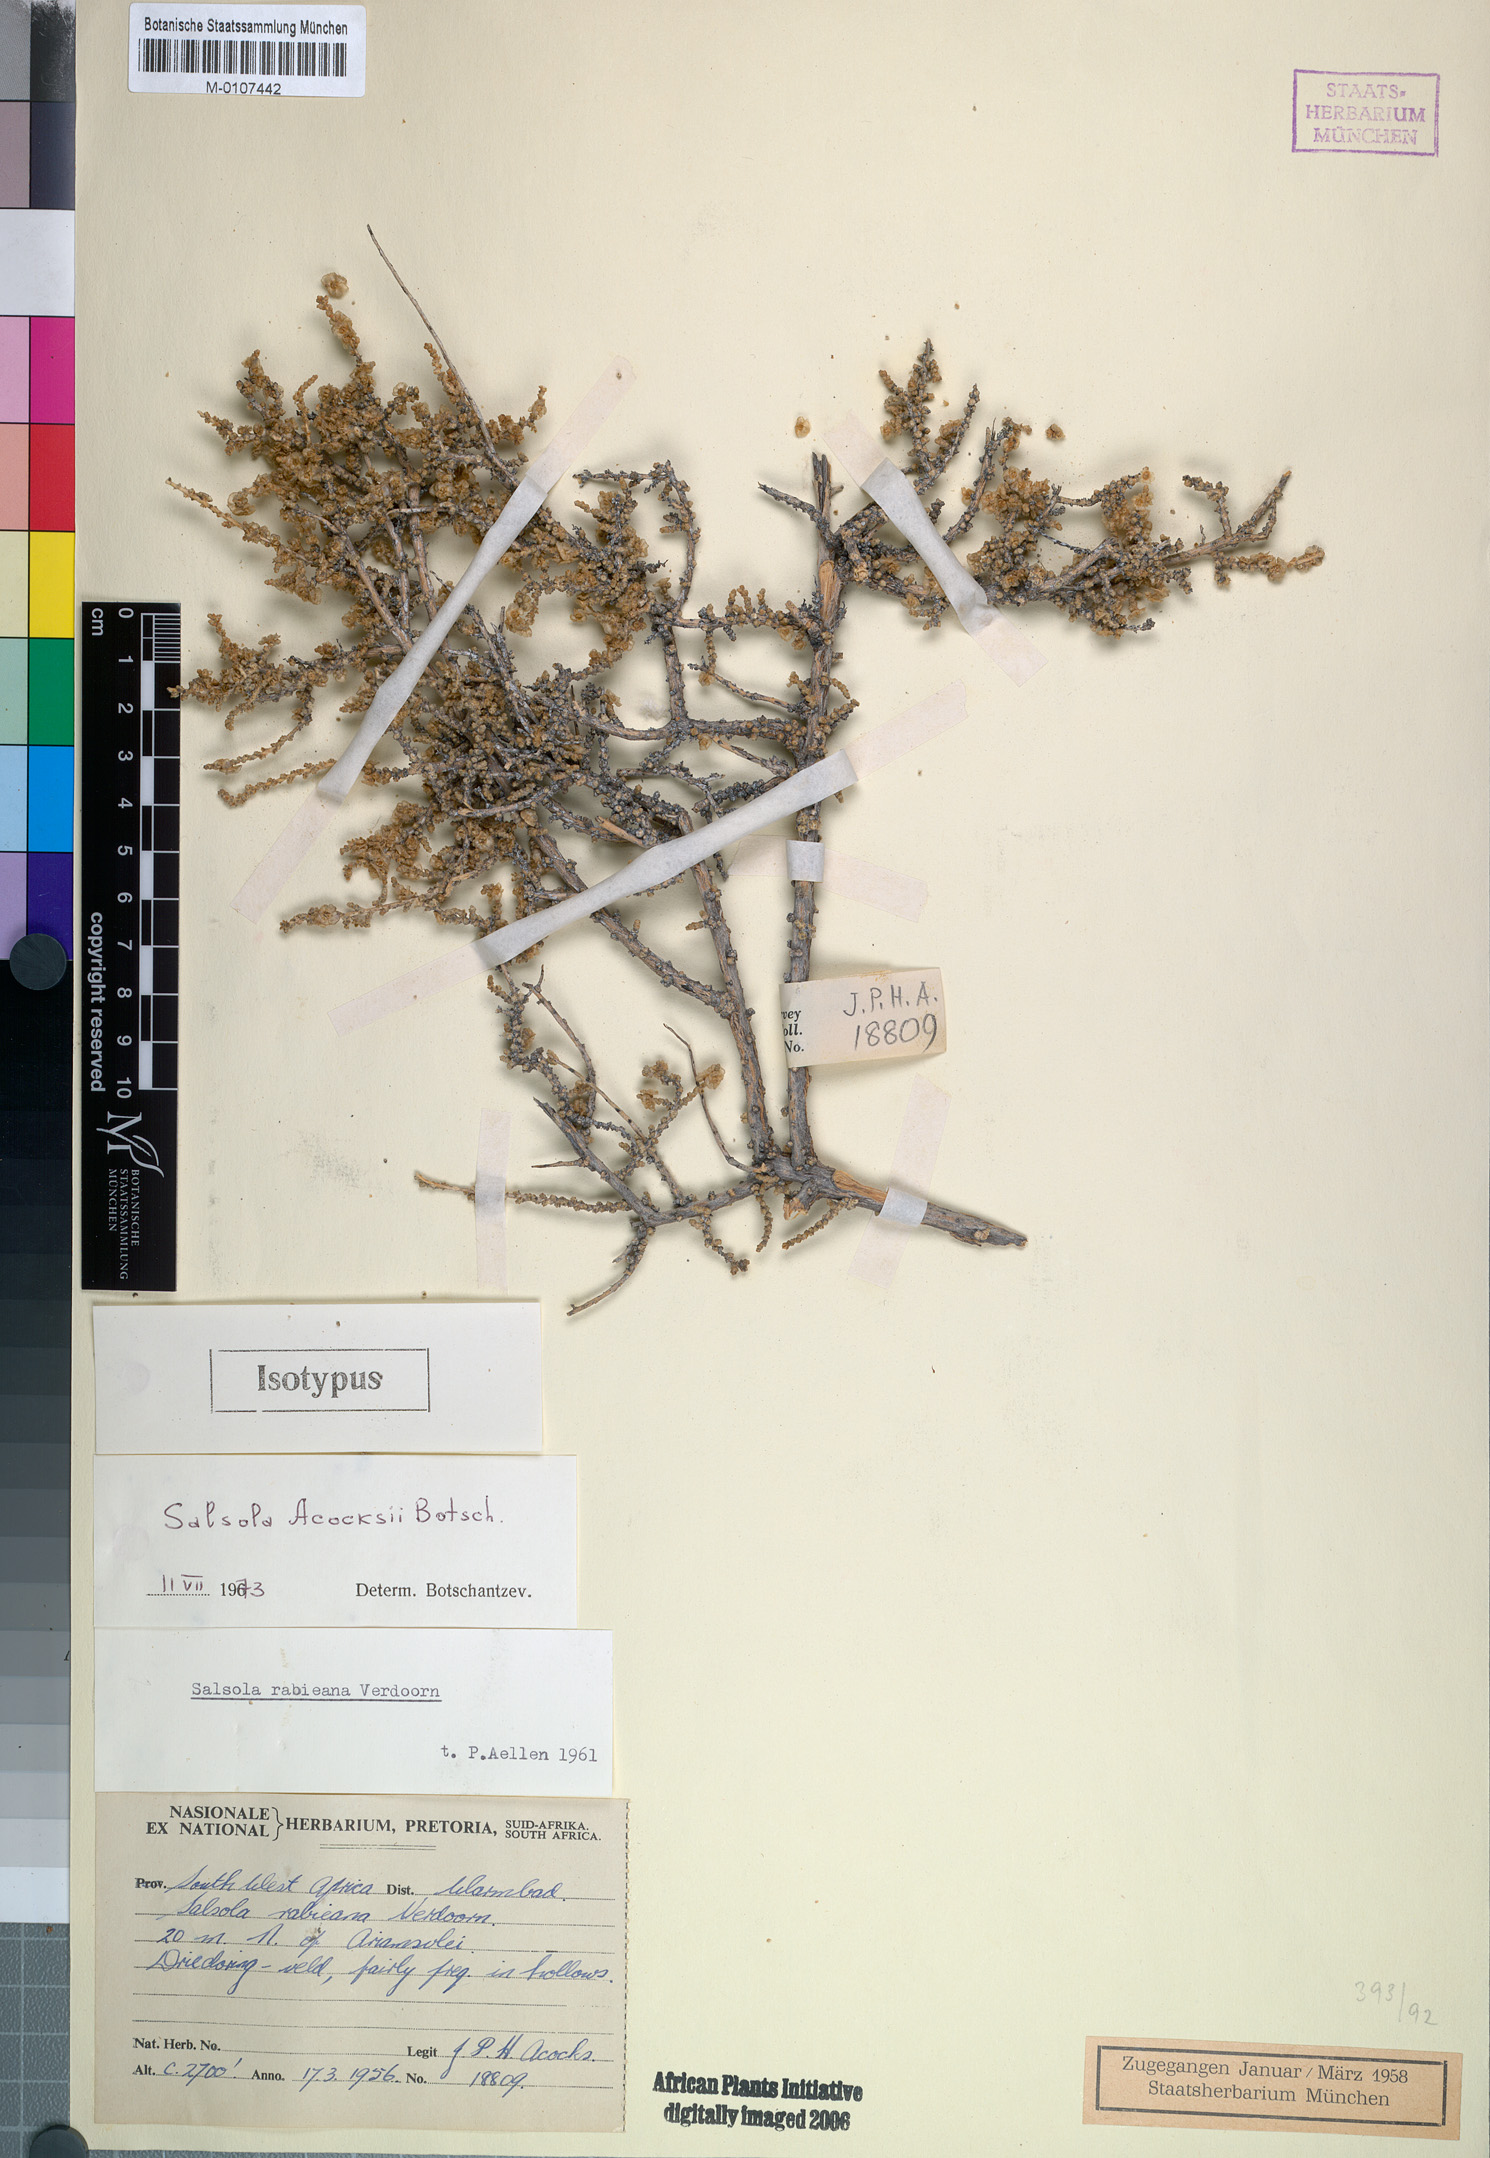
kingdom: Plantae
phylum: Tracheophyta
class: Magnoliopsida
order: Caryophyllales
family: Amaranthaceae
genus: Caroxylon
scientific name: Caroxylon acocksii
